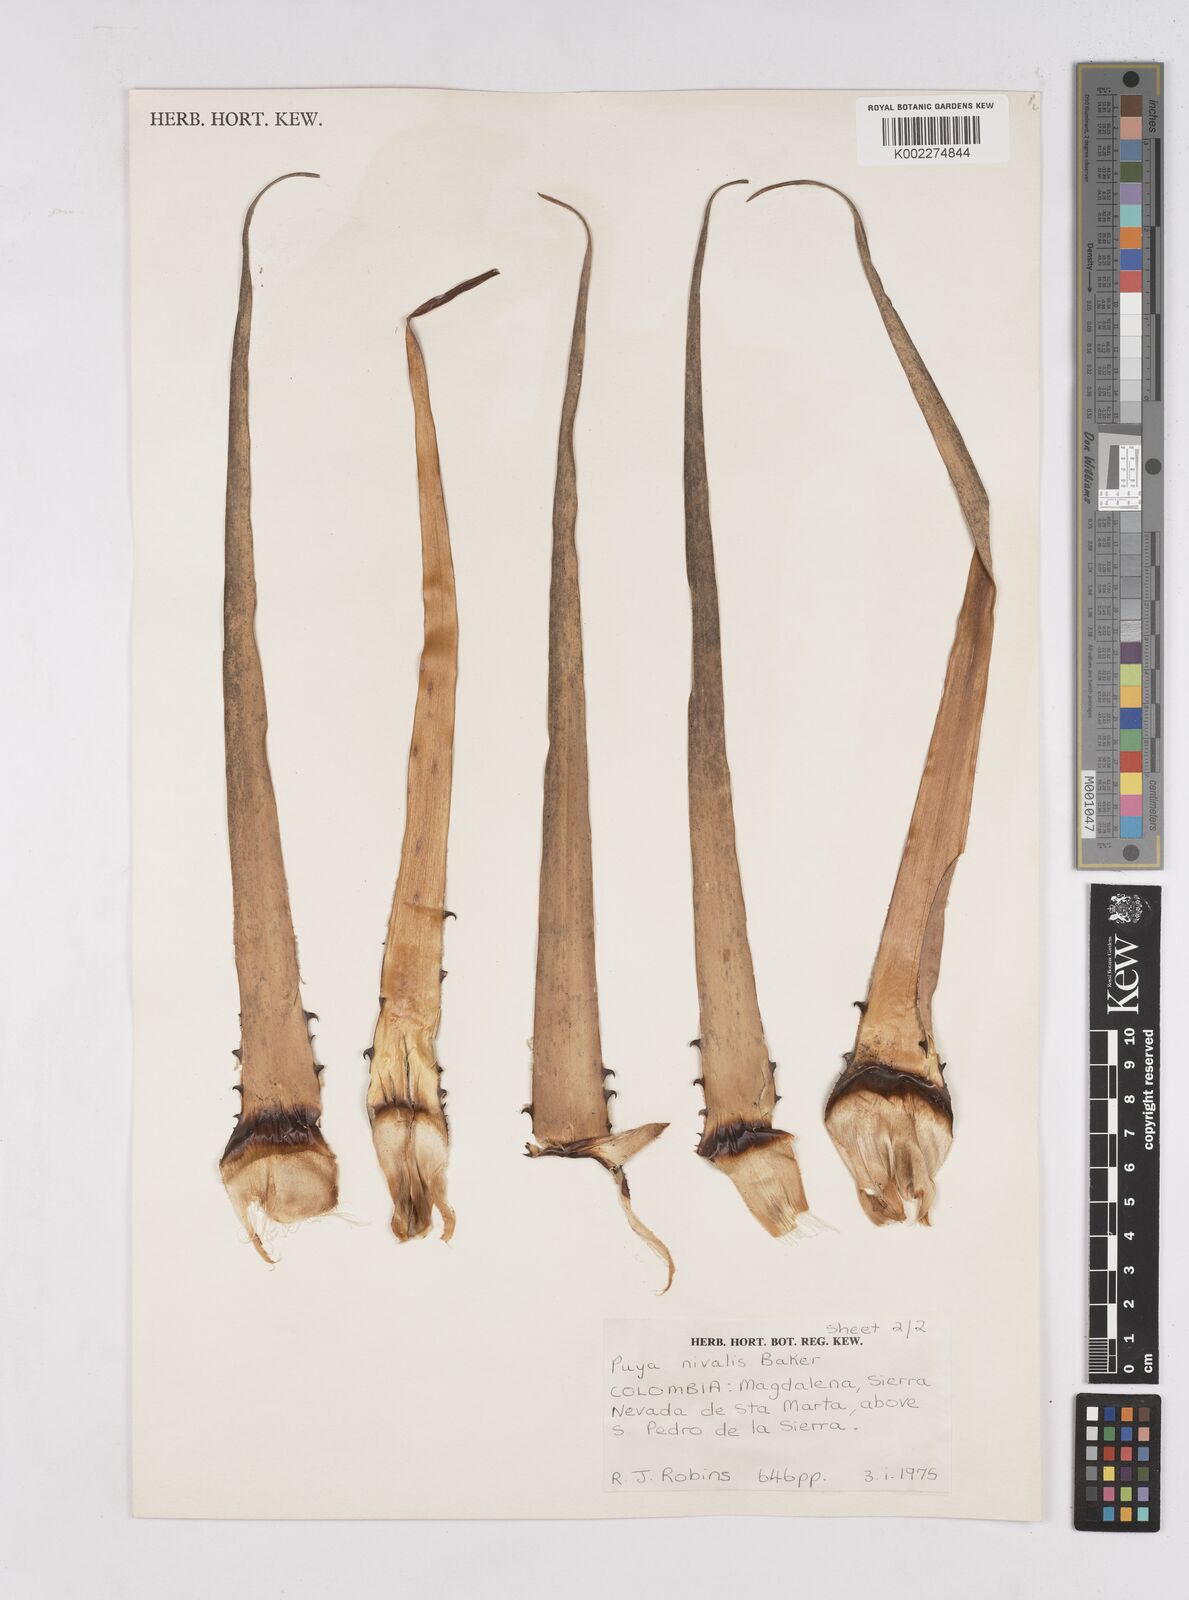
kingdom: Plantae
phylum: Tracheophyta
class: Liliopsida
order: Poales
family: Bromeliaceae
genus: Puya
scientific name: Puya nivalis
